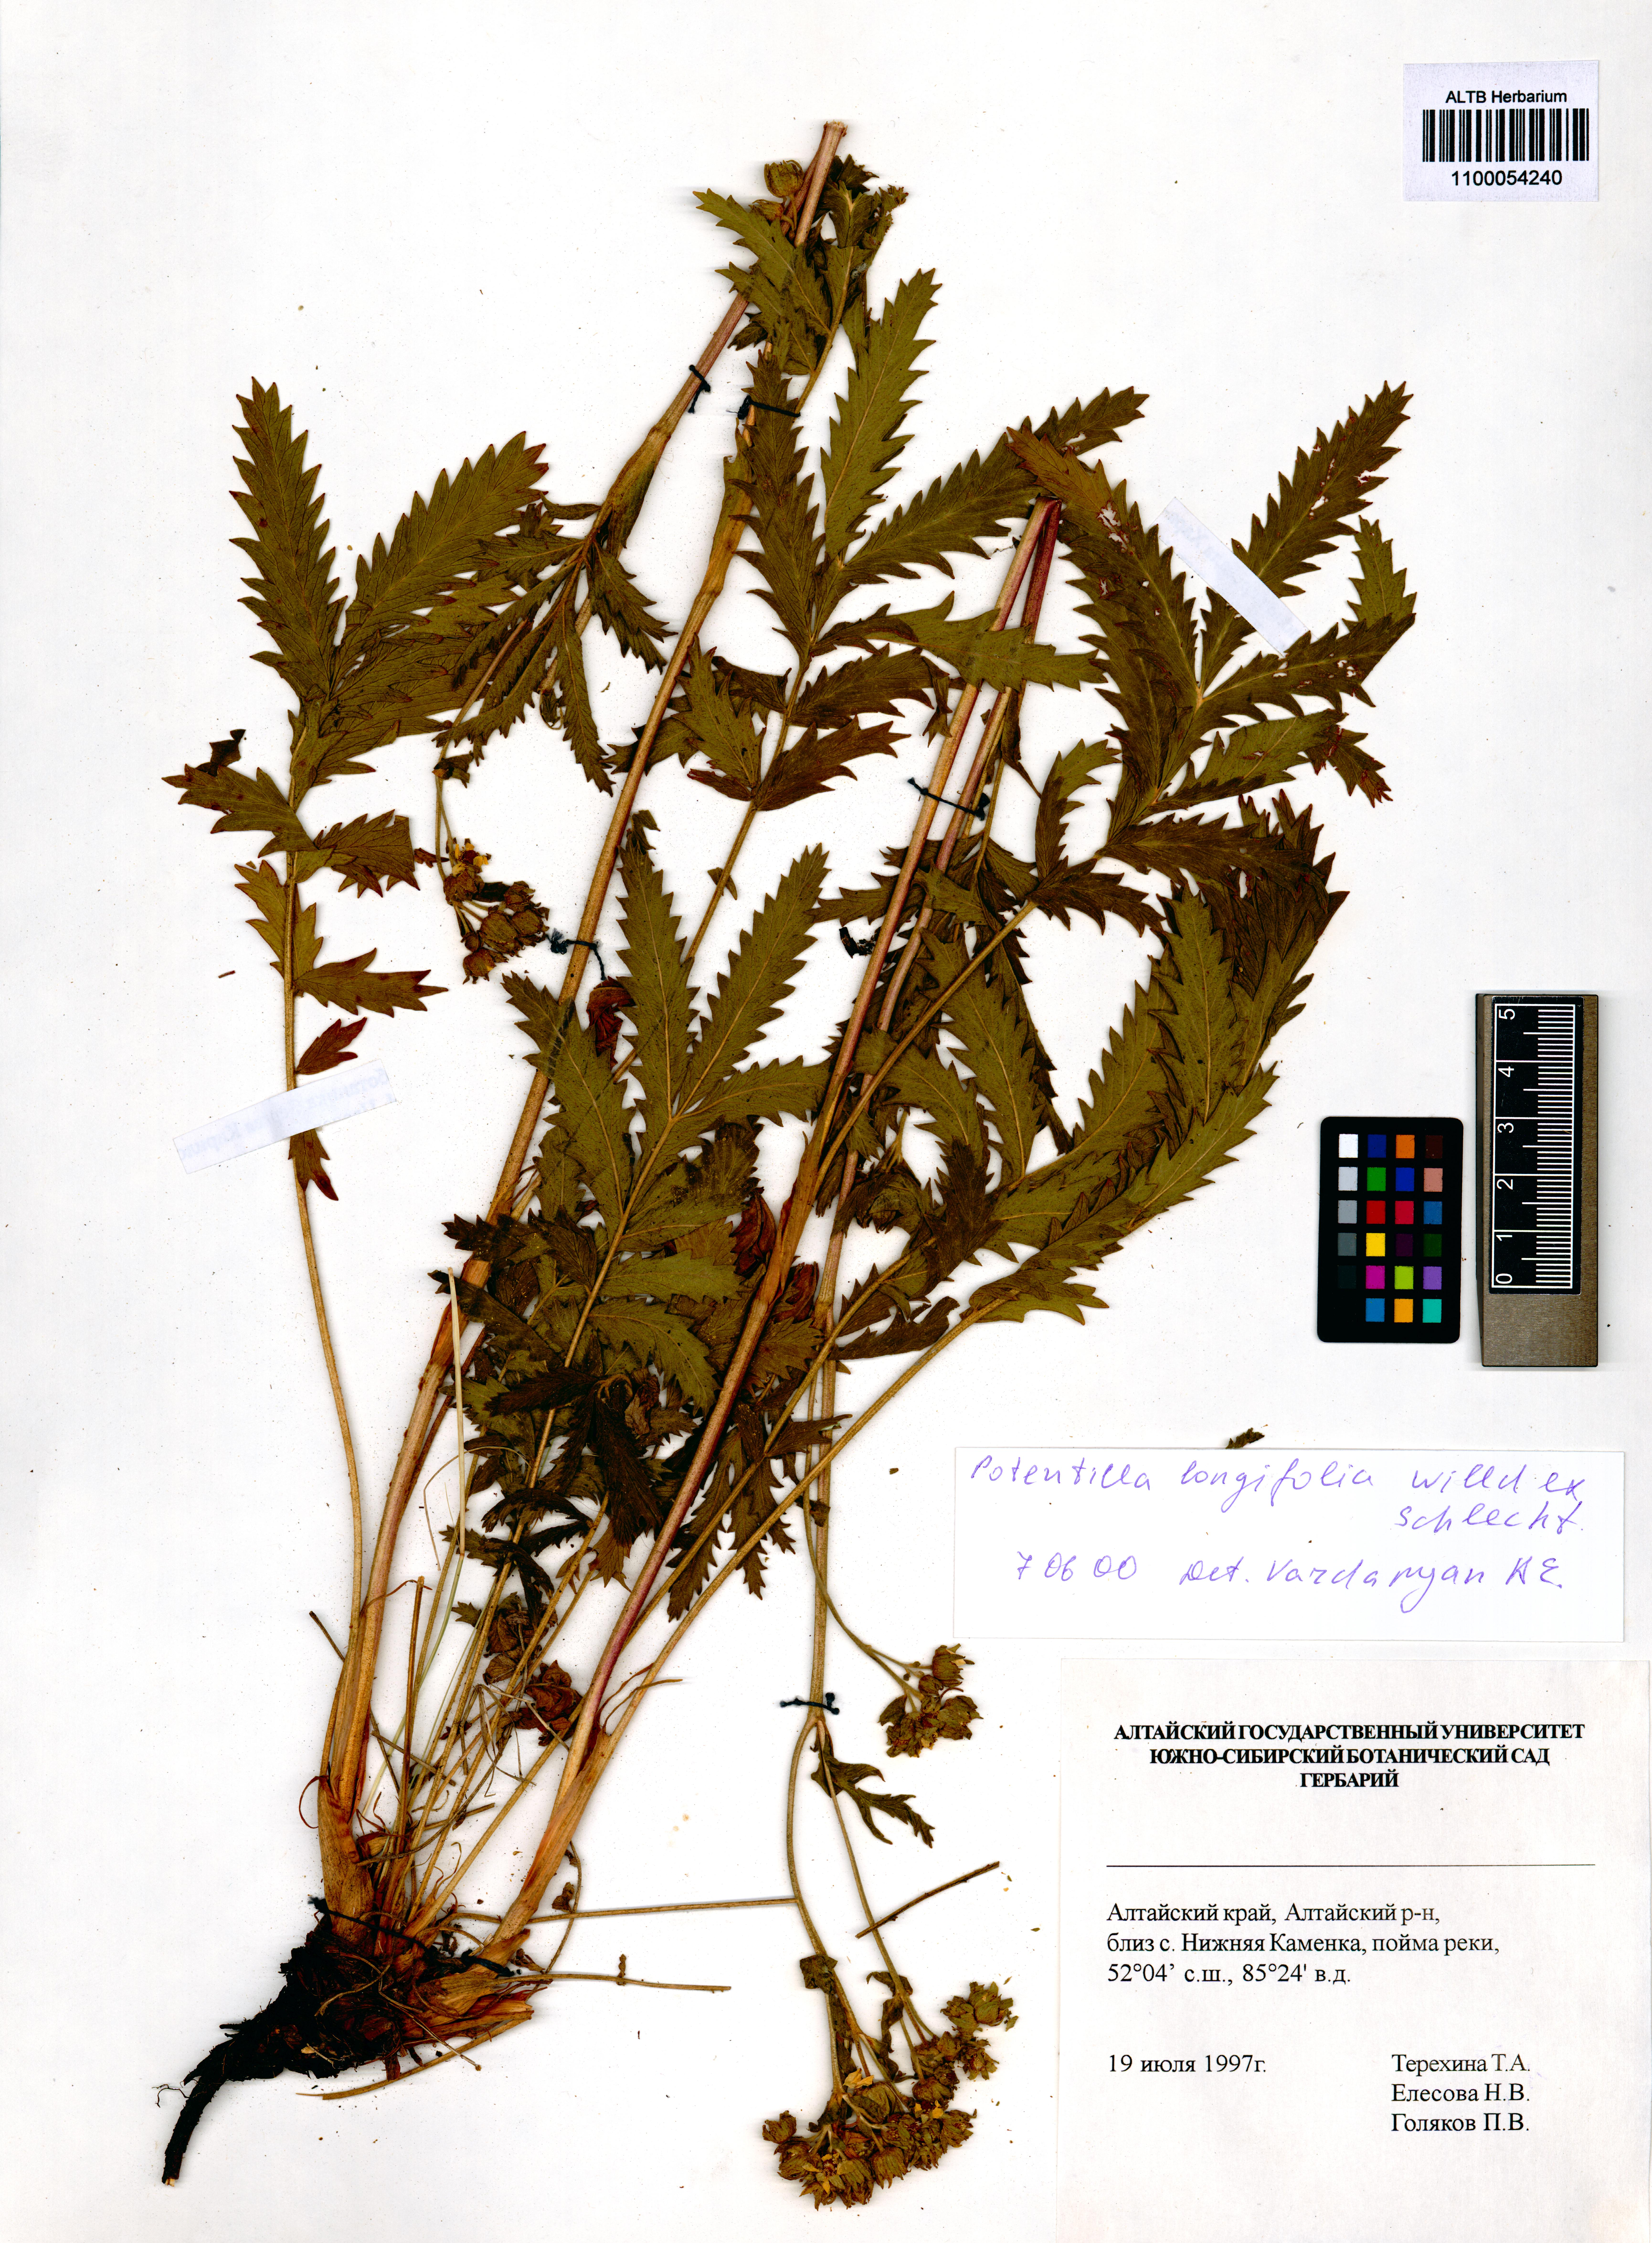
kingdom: Plantae
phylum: Tracheophyta
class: Magnoliopsida
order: Rosales
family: Rosaceae
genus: Potentilla
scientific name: Potentilla longifolia
